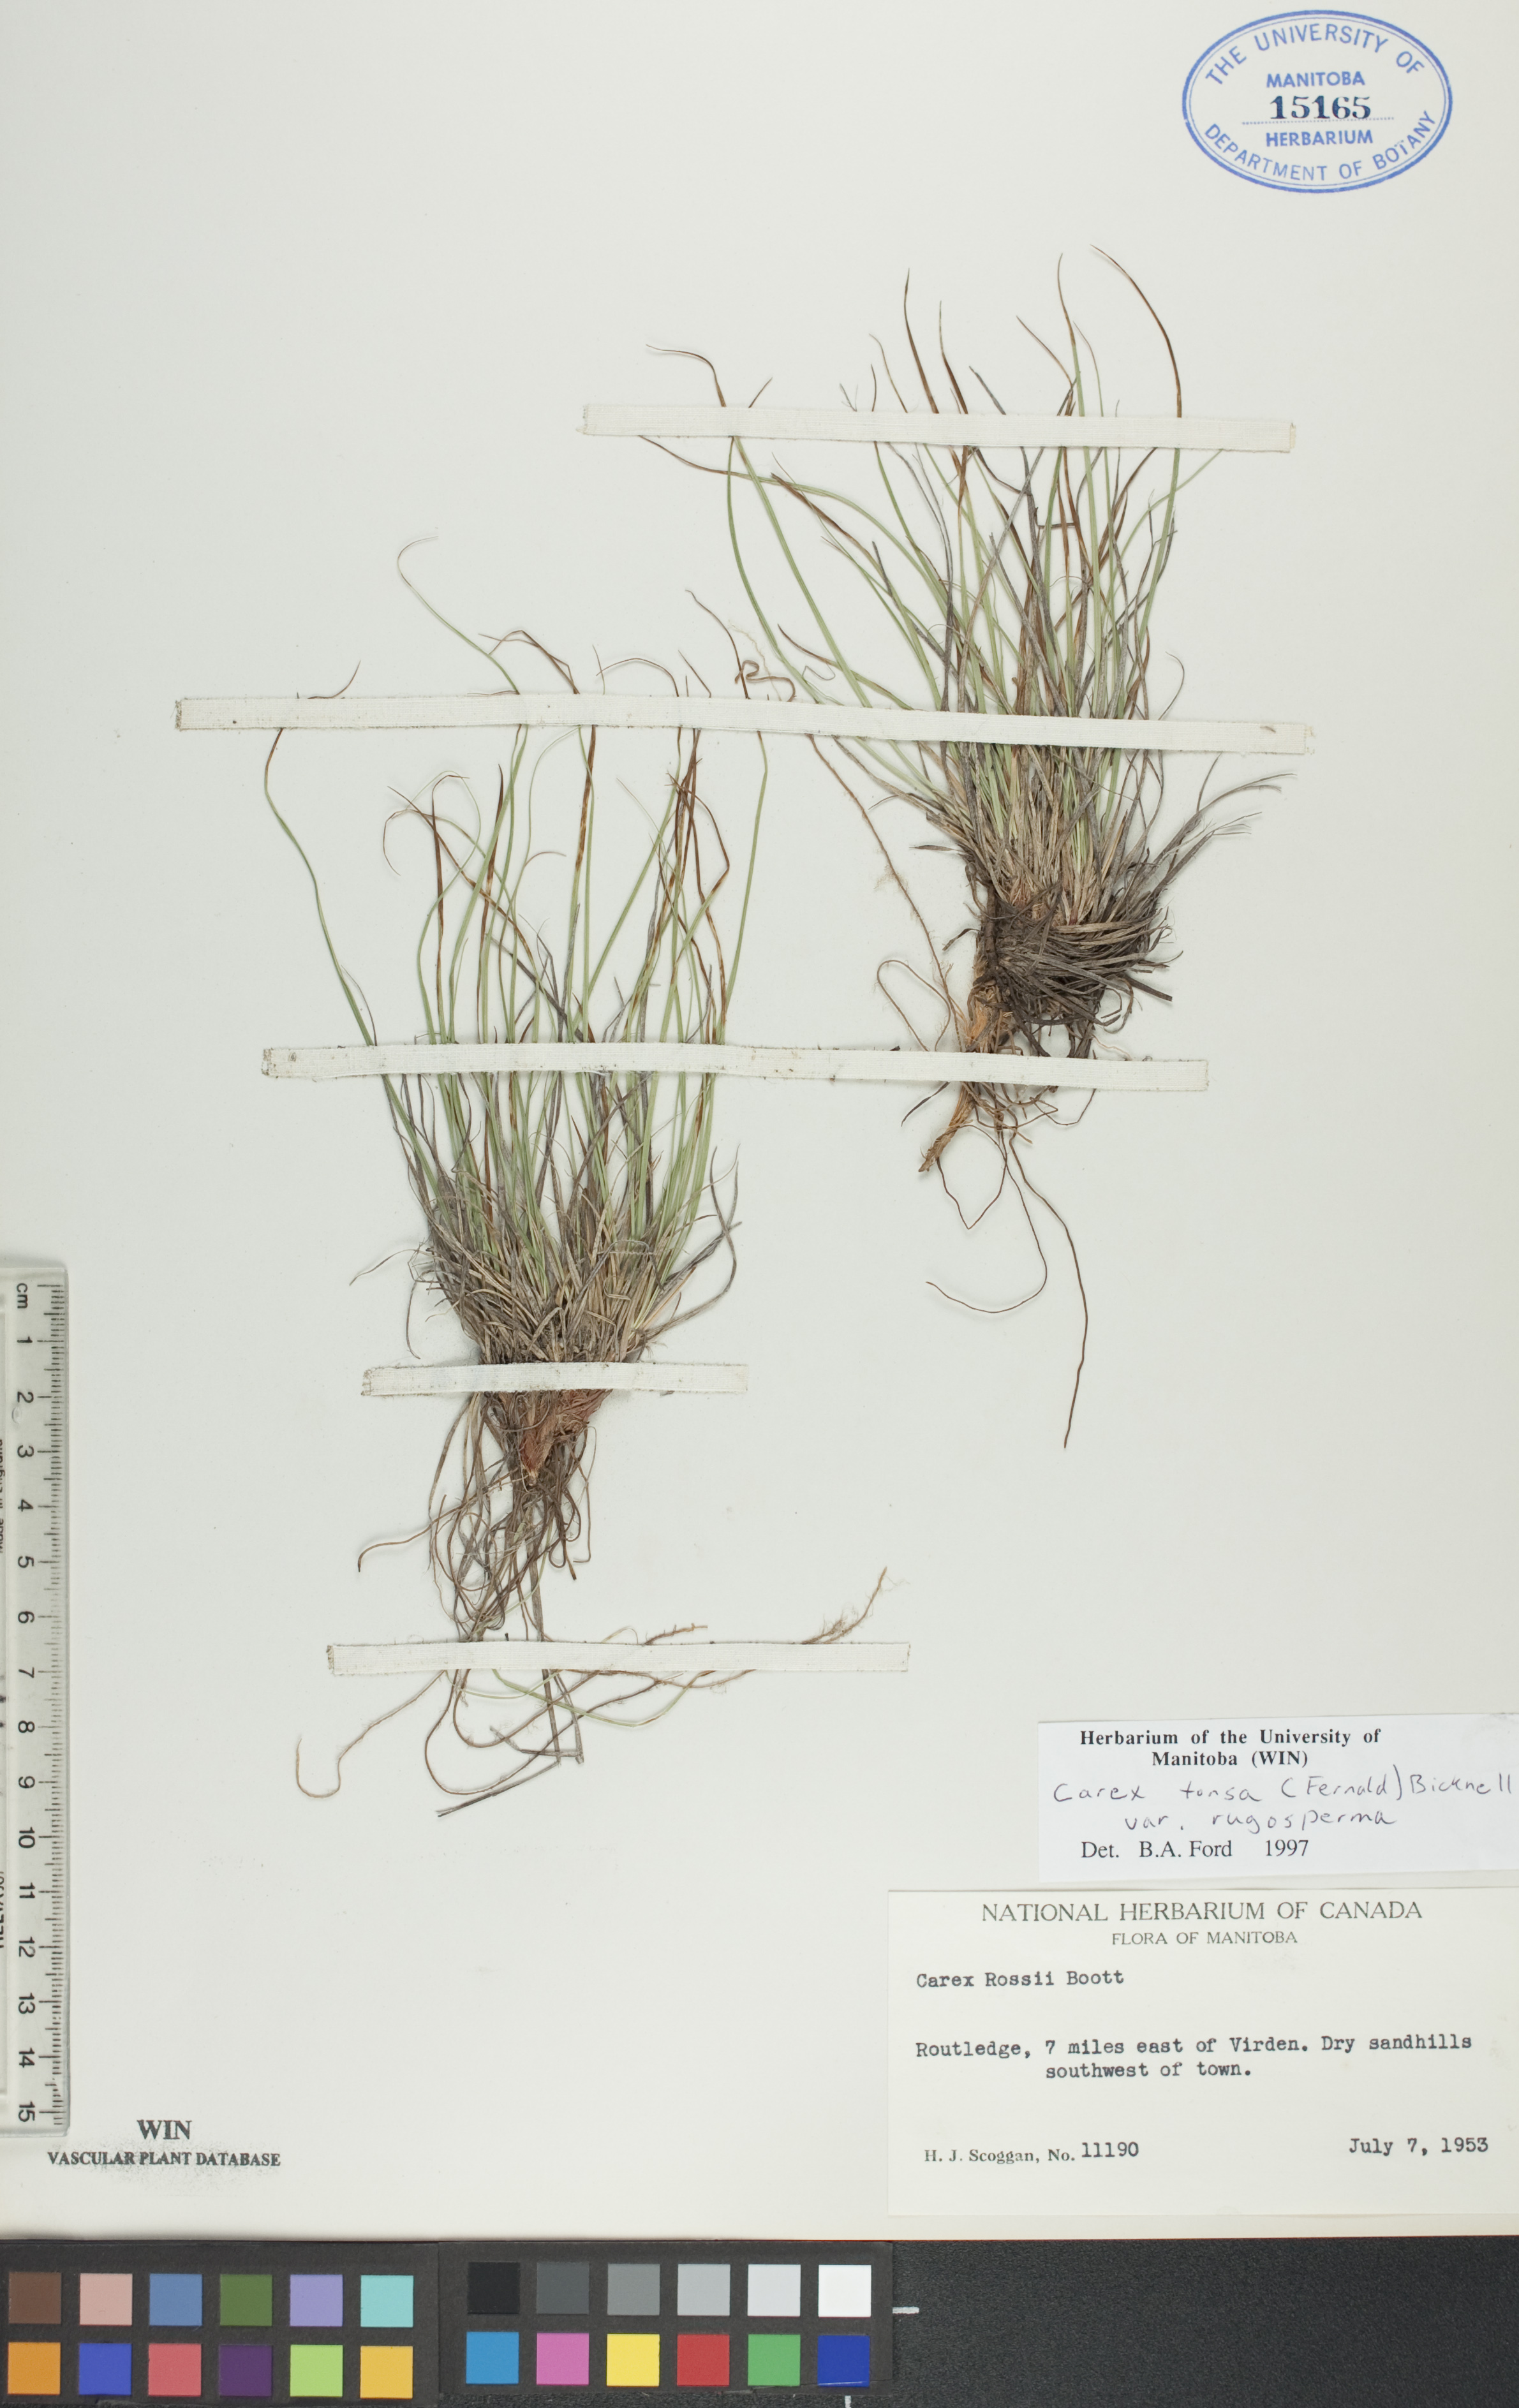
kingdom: Plantae
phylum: Tracheophyta
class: Liliopsida
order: Poales
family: Cyperaceae
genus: Carex
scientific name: Carex tonsa
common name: Bald sedge
